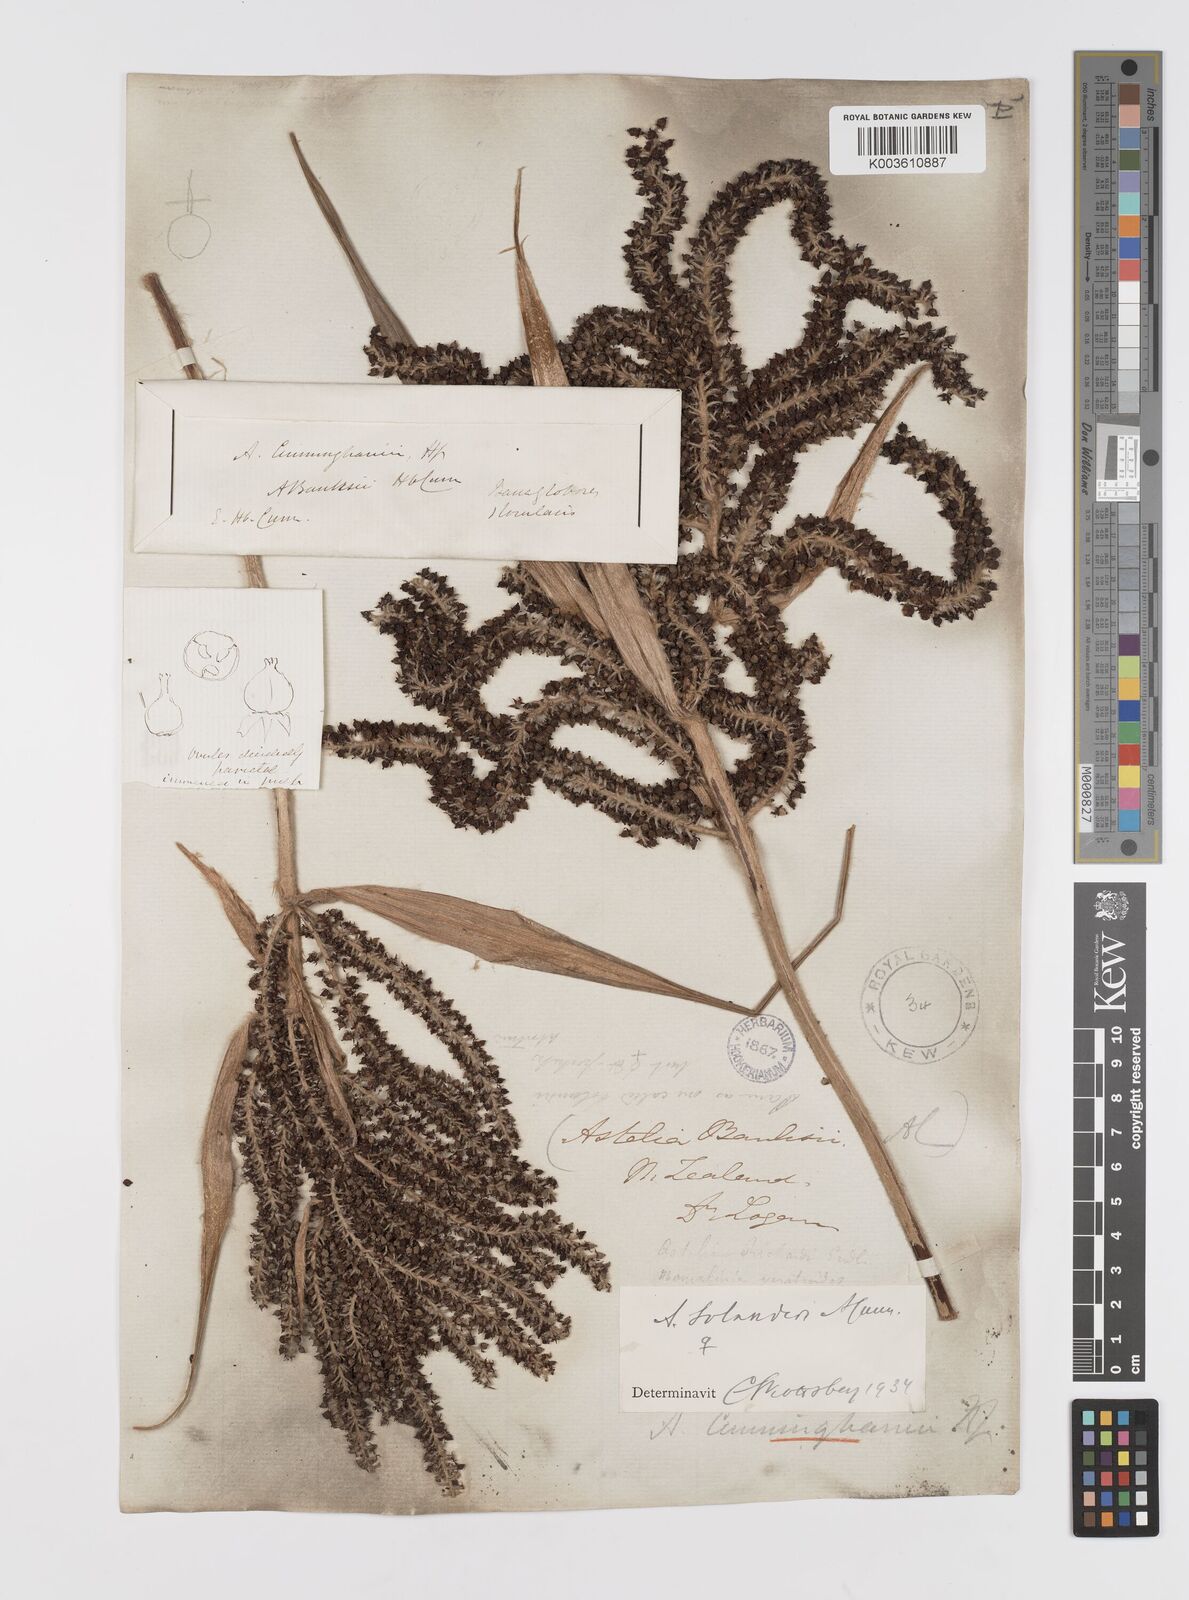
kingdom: Plantae
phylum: Tracheophyta
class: Liliopsida
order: Asparagales
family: Asteliaceae
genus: Astelia
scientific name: Astelia solandri
